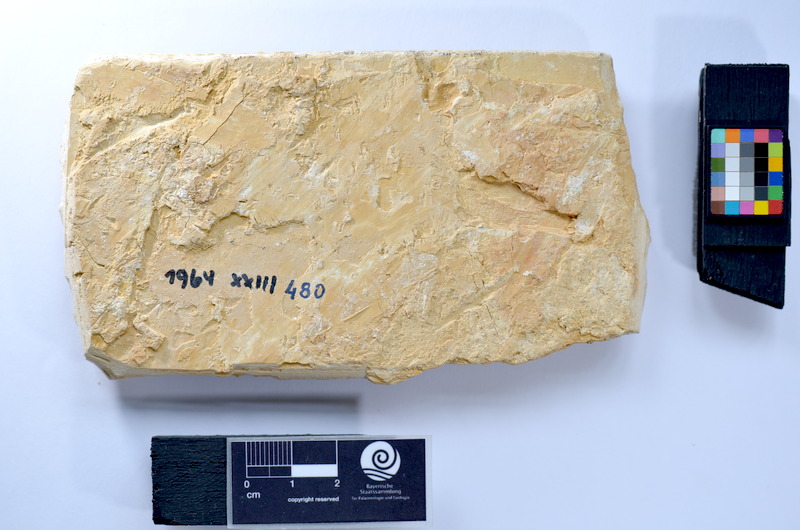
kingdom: Animalia
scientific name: Animalia
